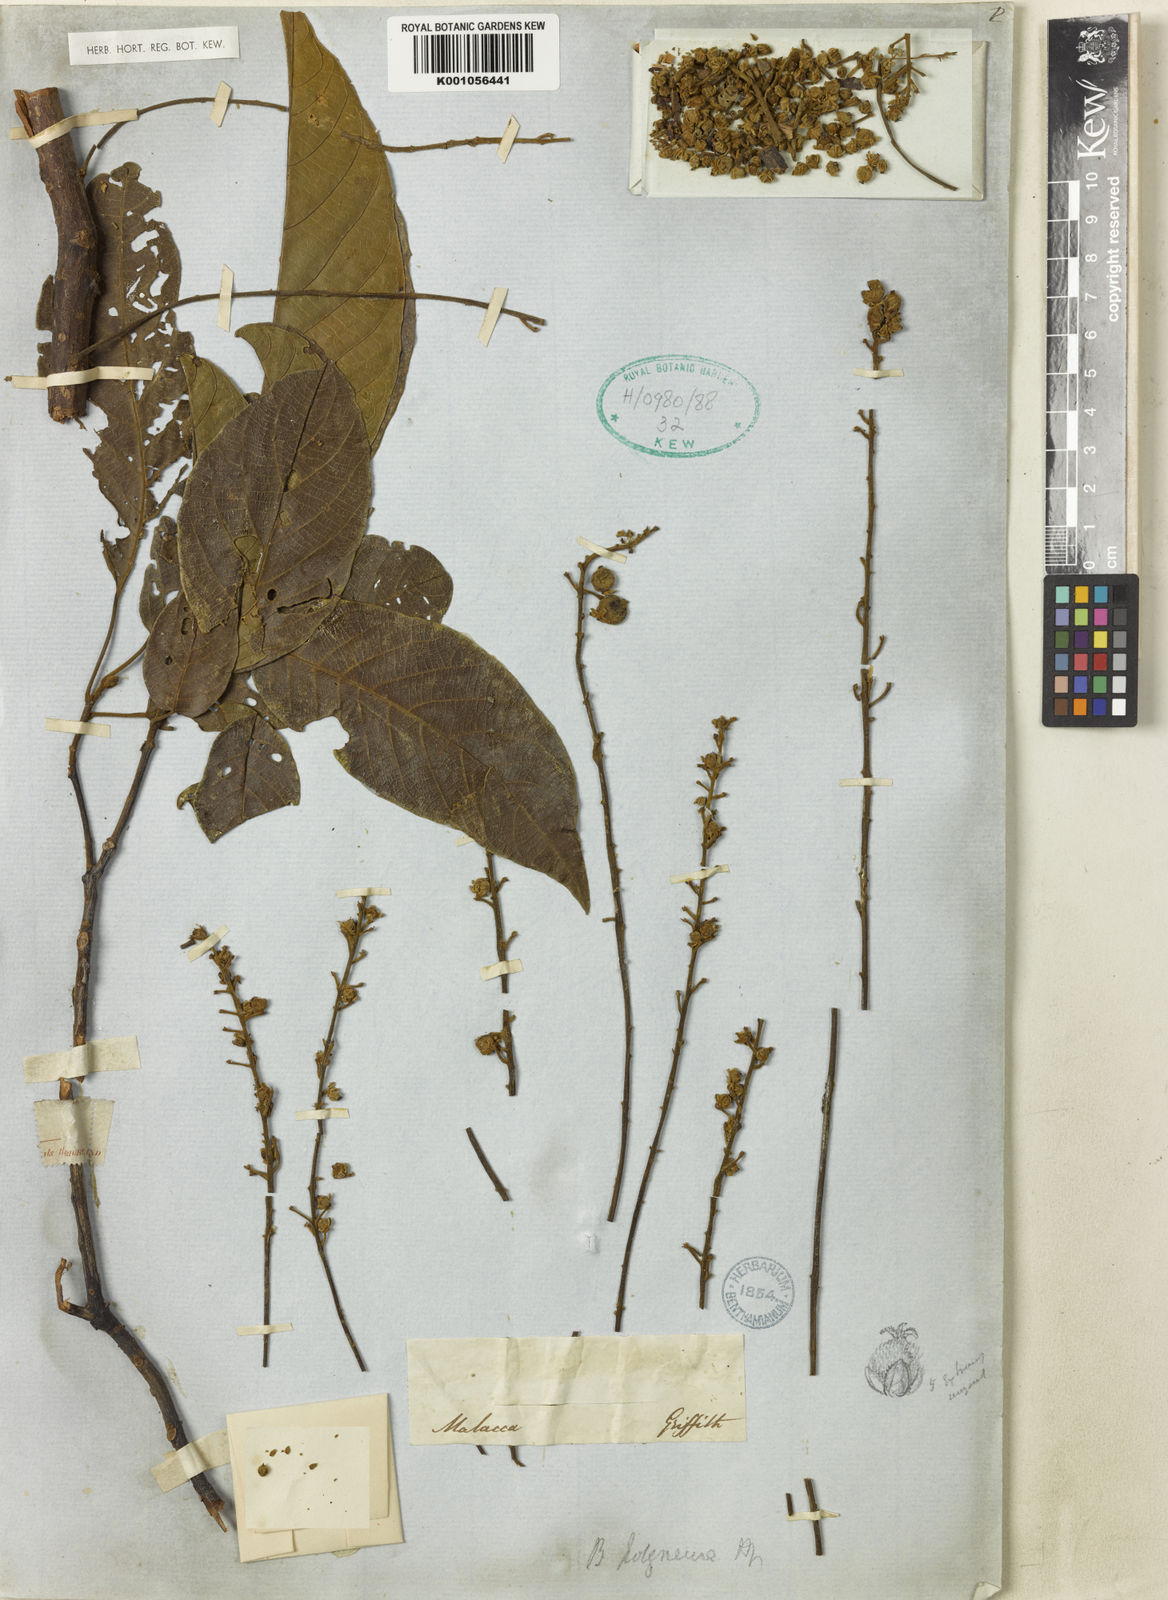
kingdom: Plantae
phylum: Tracheophyta
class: Magnoliopsida
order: Malpighiales
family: Phyllanthaceae
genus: Baccaurea
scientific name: Baccaurea polyneura
